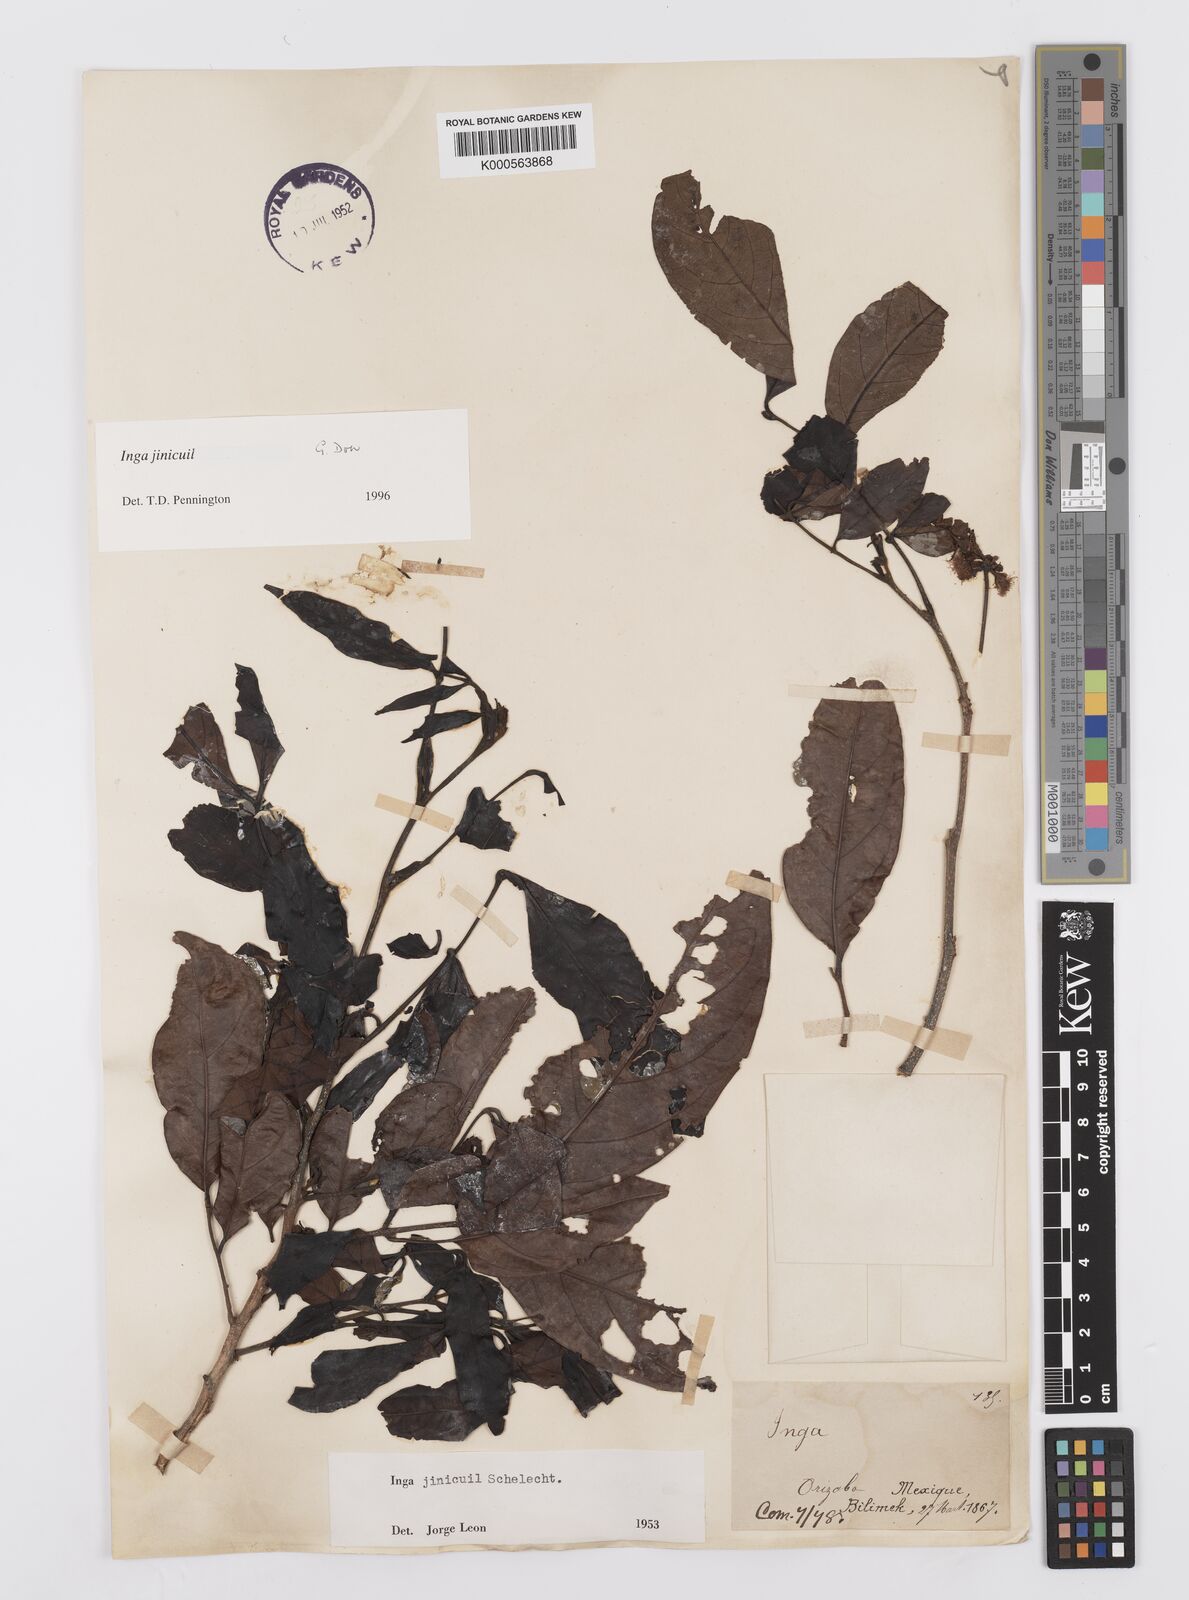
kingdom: Plantae
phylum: Tracheophyta
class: Magnoliopsida
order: Fabales
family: Fabaceae
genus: Inga
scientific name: Inga inicuil
